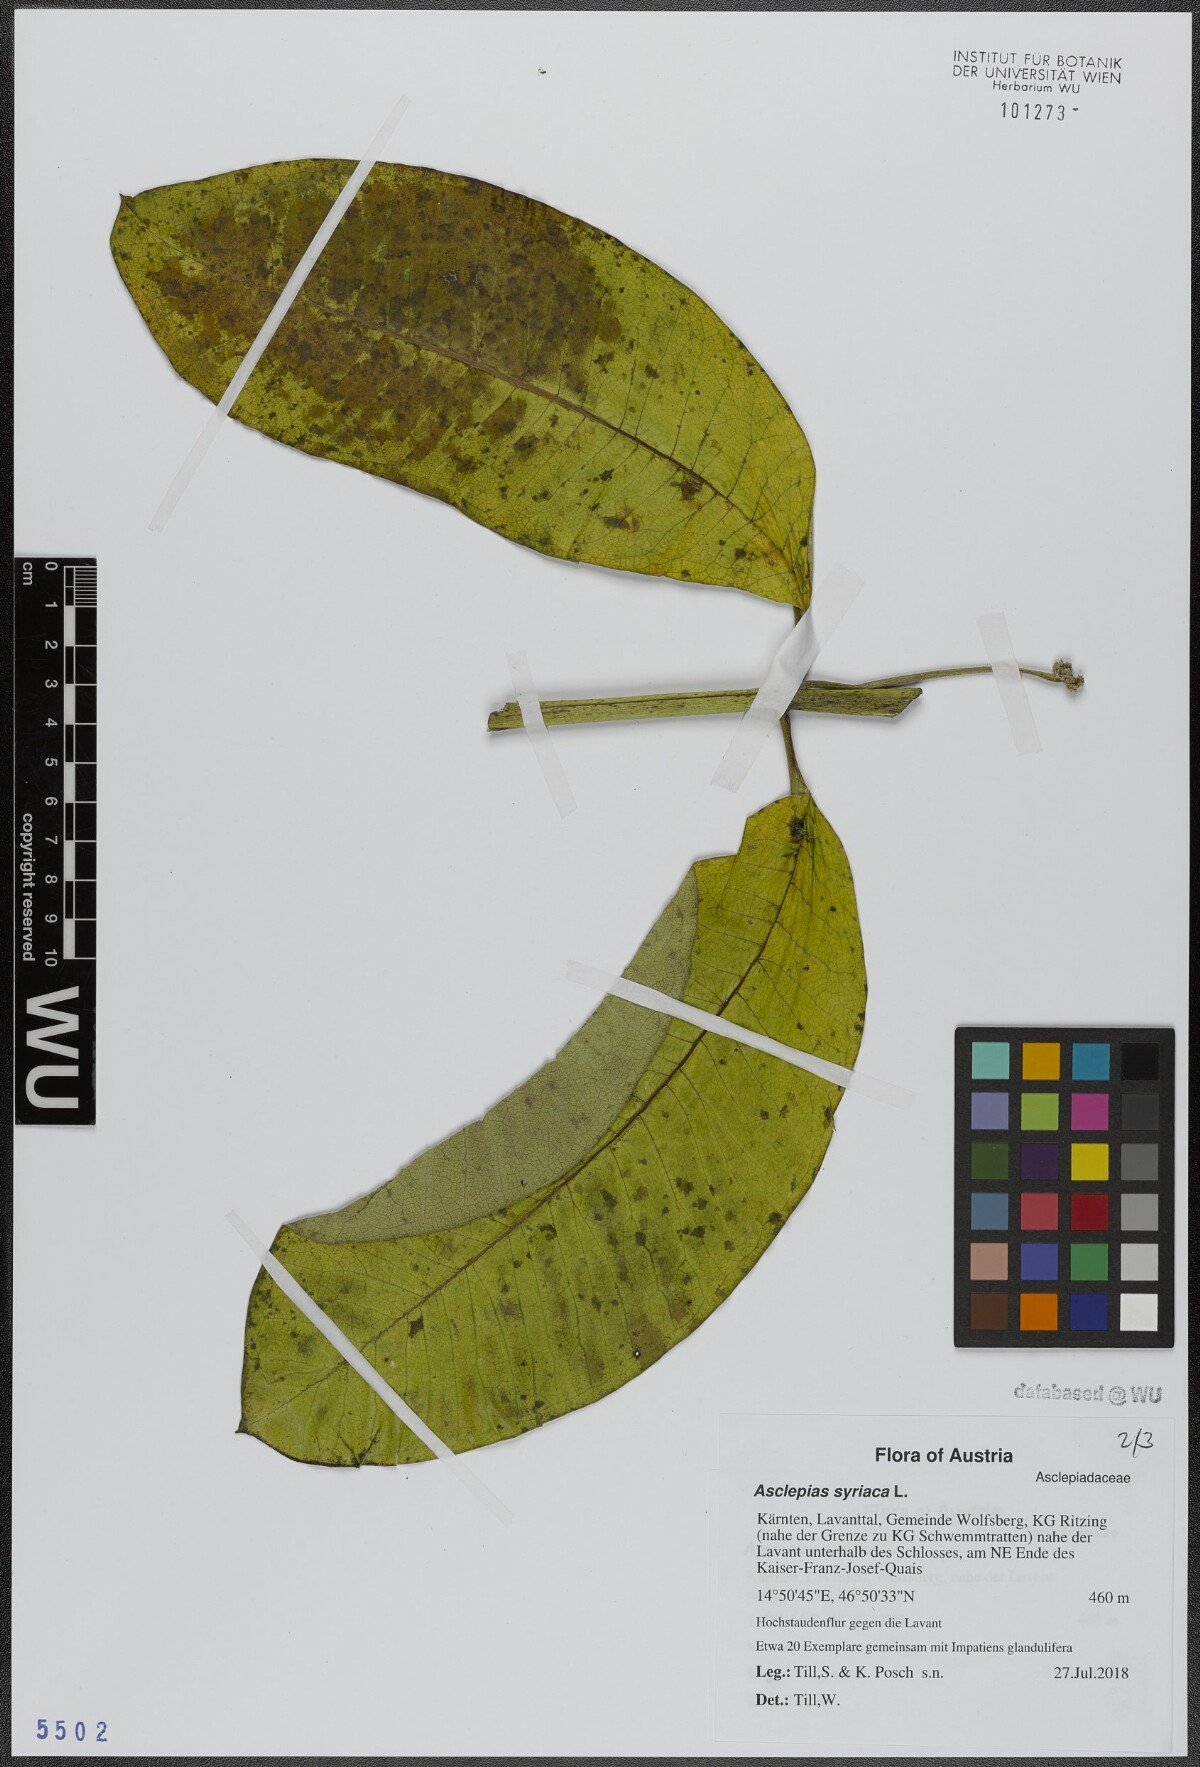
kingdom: Plantae
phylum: Tracheophyta
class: Magnoliopsida
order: Gentianales
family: Apocynaceae
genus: Asclepias
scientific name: Asclepias syriaca
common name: Common milkweed
